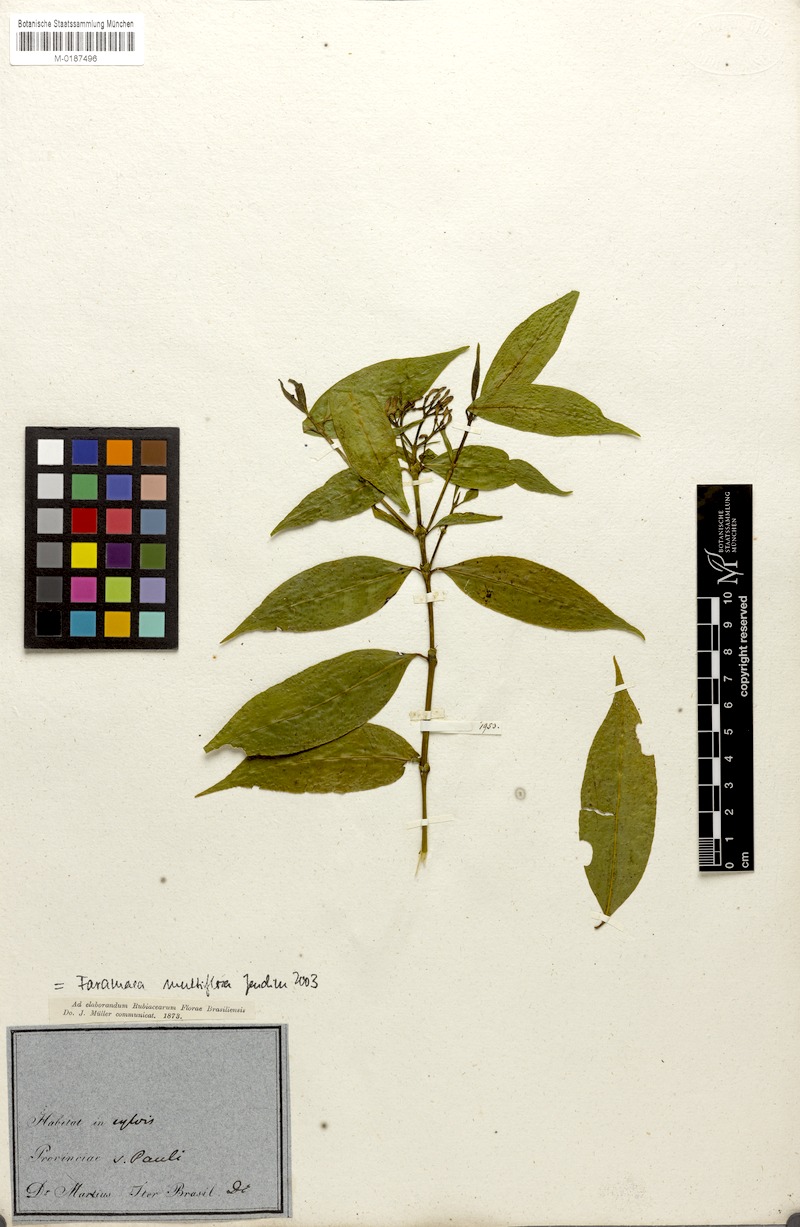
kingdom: Plantae
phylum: Tracheophyta
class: Magnoliopsida
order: Gentianales
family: Rubiaceae
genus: Faramea
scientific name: Faramea multiflora
